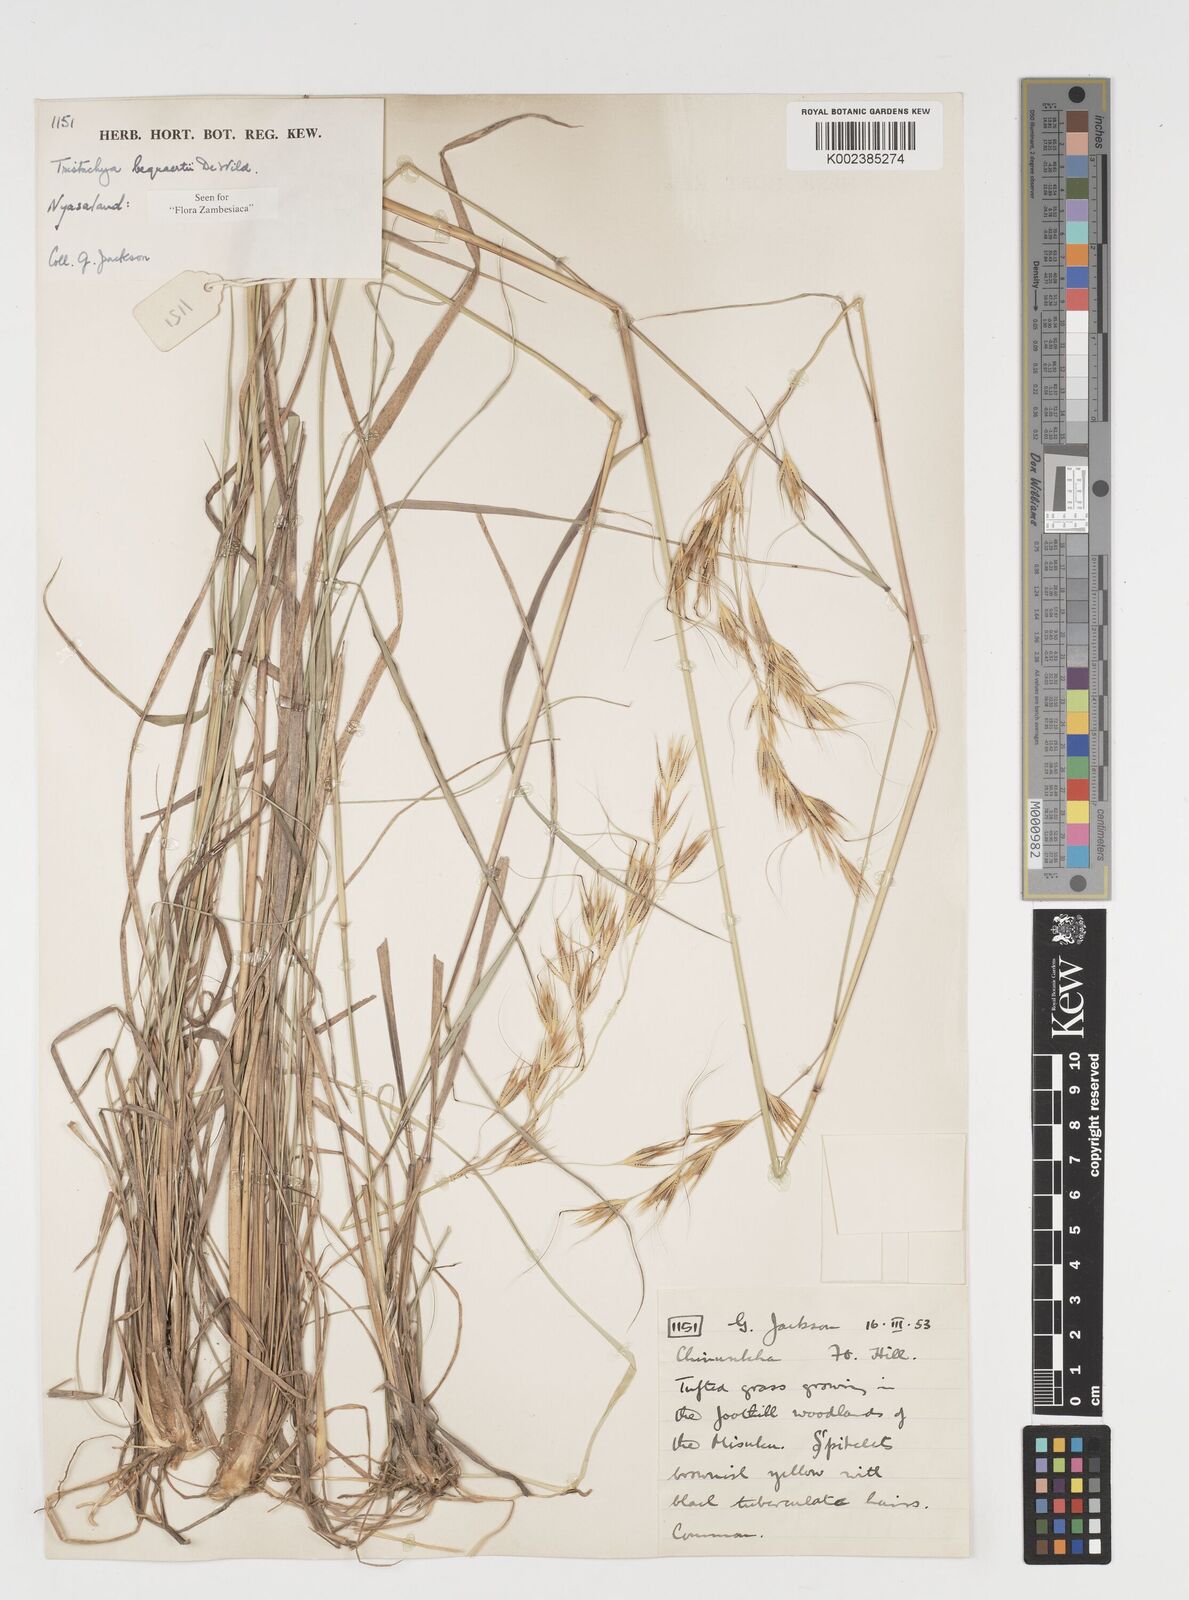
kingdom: Plantae
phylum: Tracheophyta
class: Liliopsida
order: Poales
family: Poaceae
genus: Tristachya
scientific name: Tristachya bequaertii
